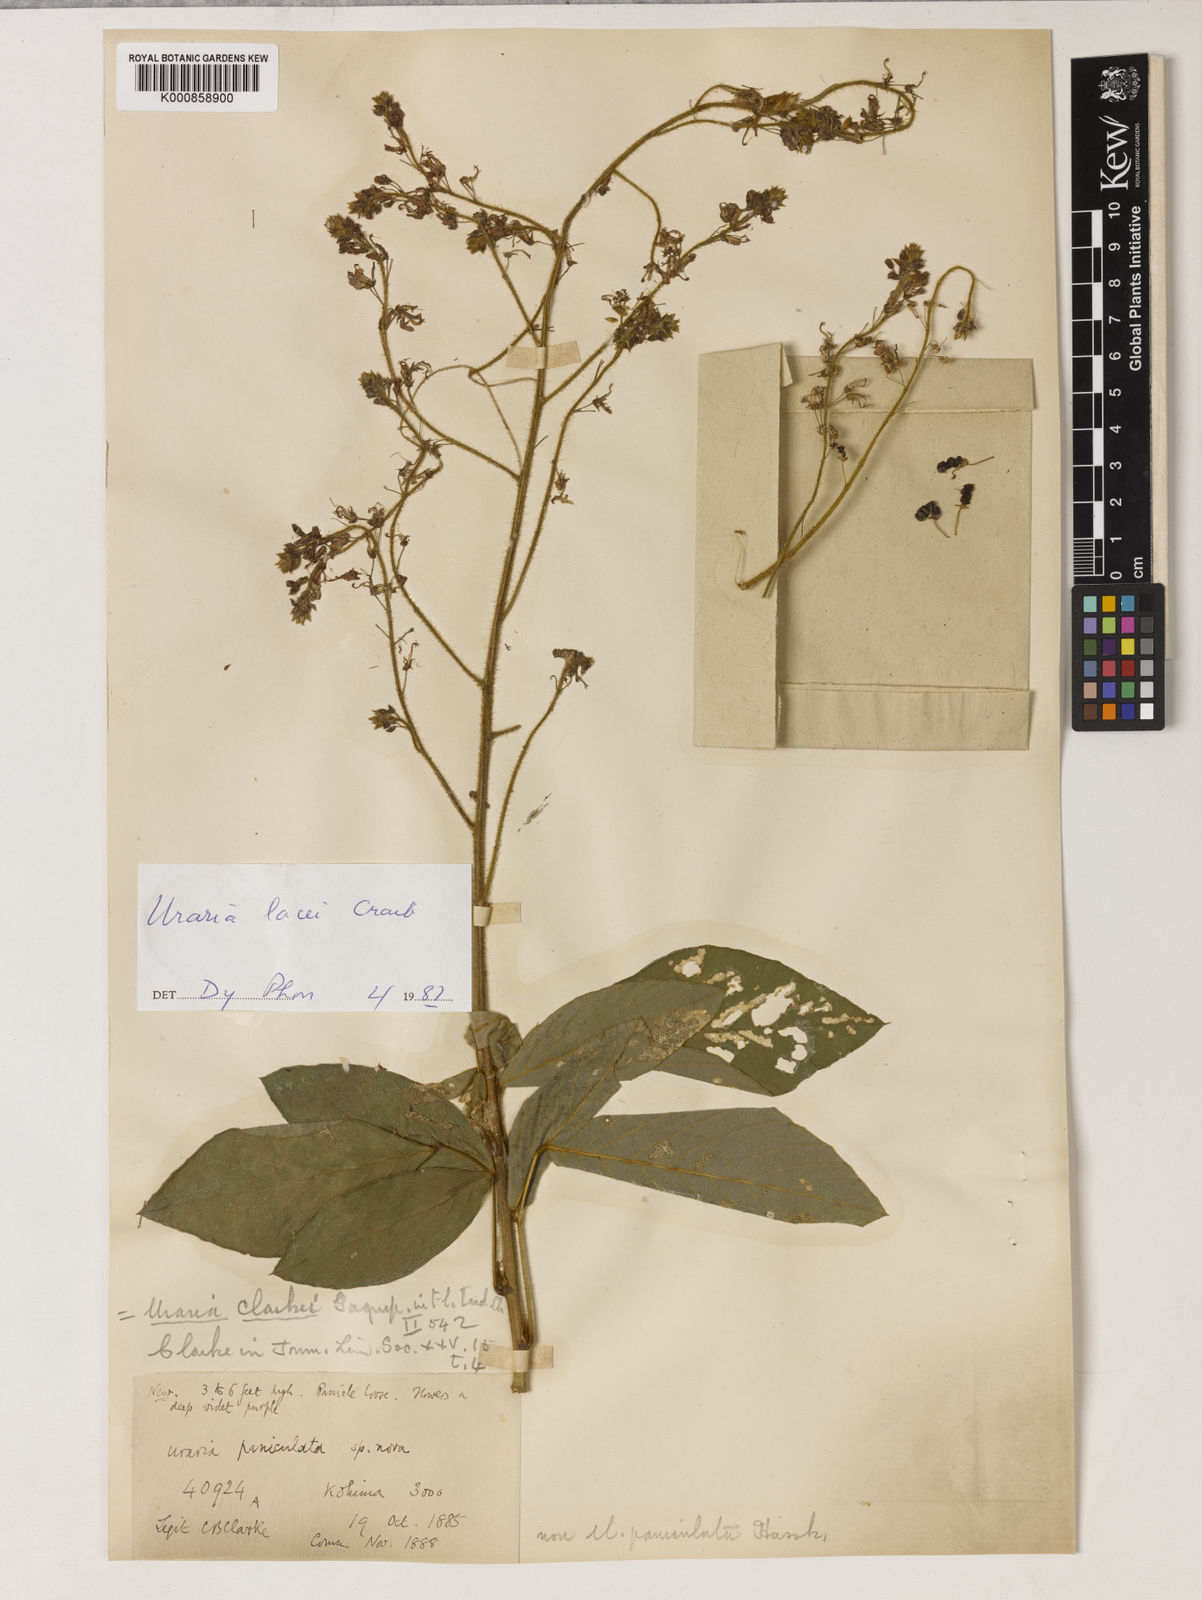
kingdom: Plantae
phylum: Tracheophyta
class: Magnoliopsida
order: Fabales
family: Fabaceae
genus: Uraria
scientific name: Uraria lacei
